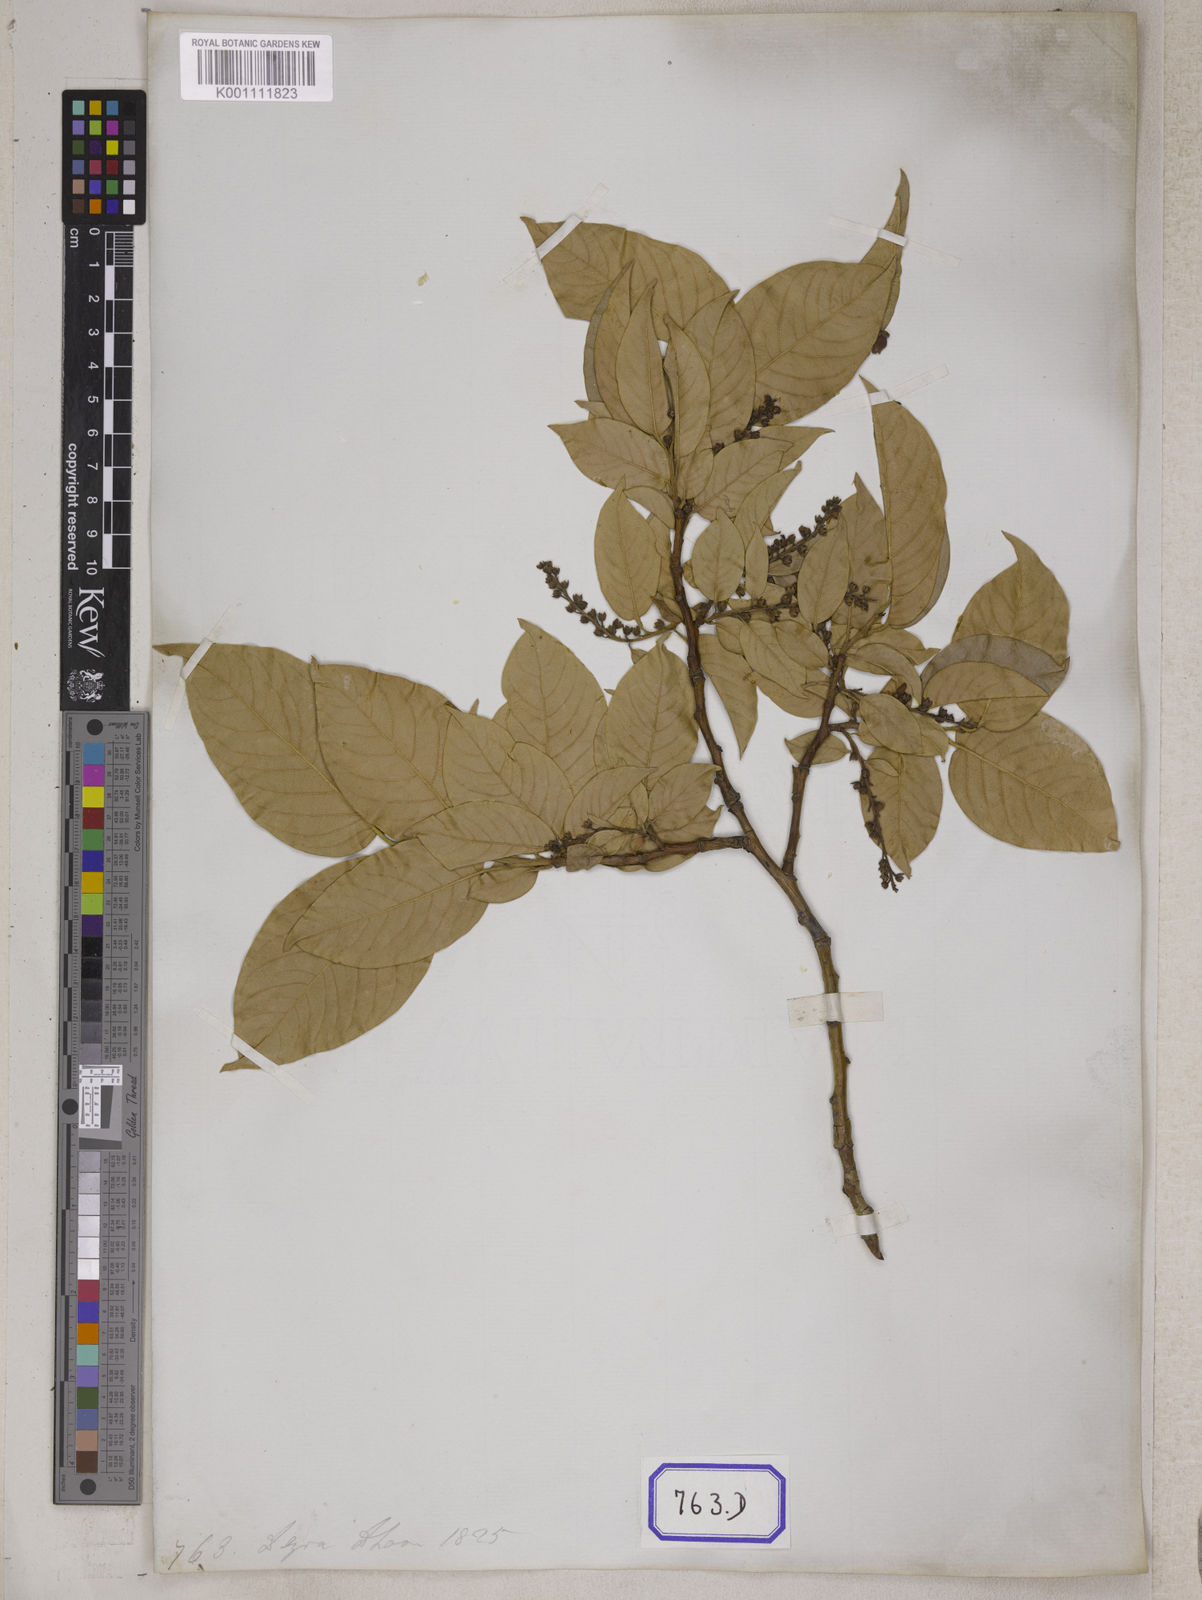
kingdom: Plantae
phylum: Tracheophyta
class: Magnoliopsida
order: Ericales
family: Ericaceae
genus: Lyonia
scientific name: Lyonia ovalifolia
